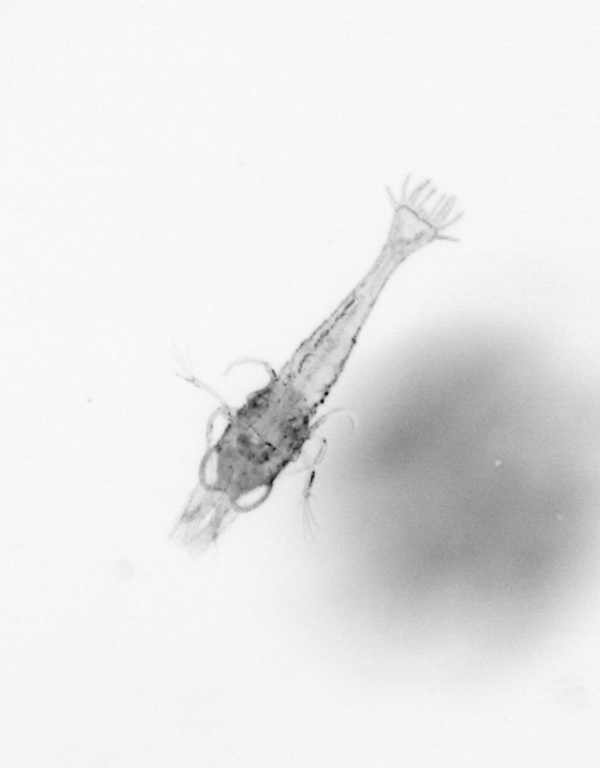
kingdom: Animalia
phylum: Arthropoda
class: Malacostraca
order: Decapoda
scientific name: Decapoda
